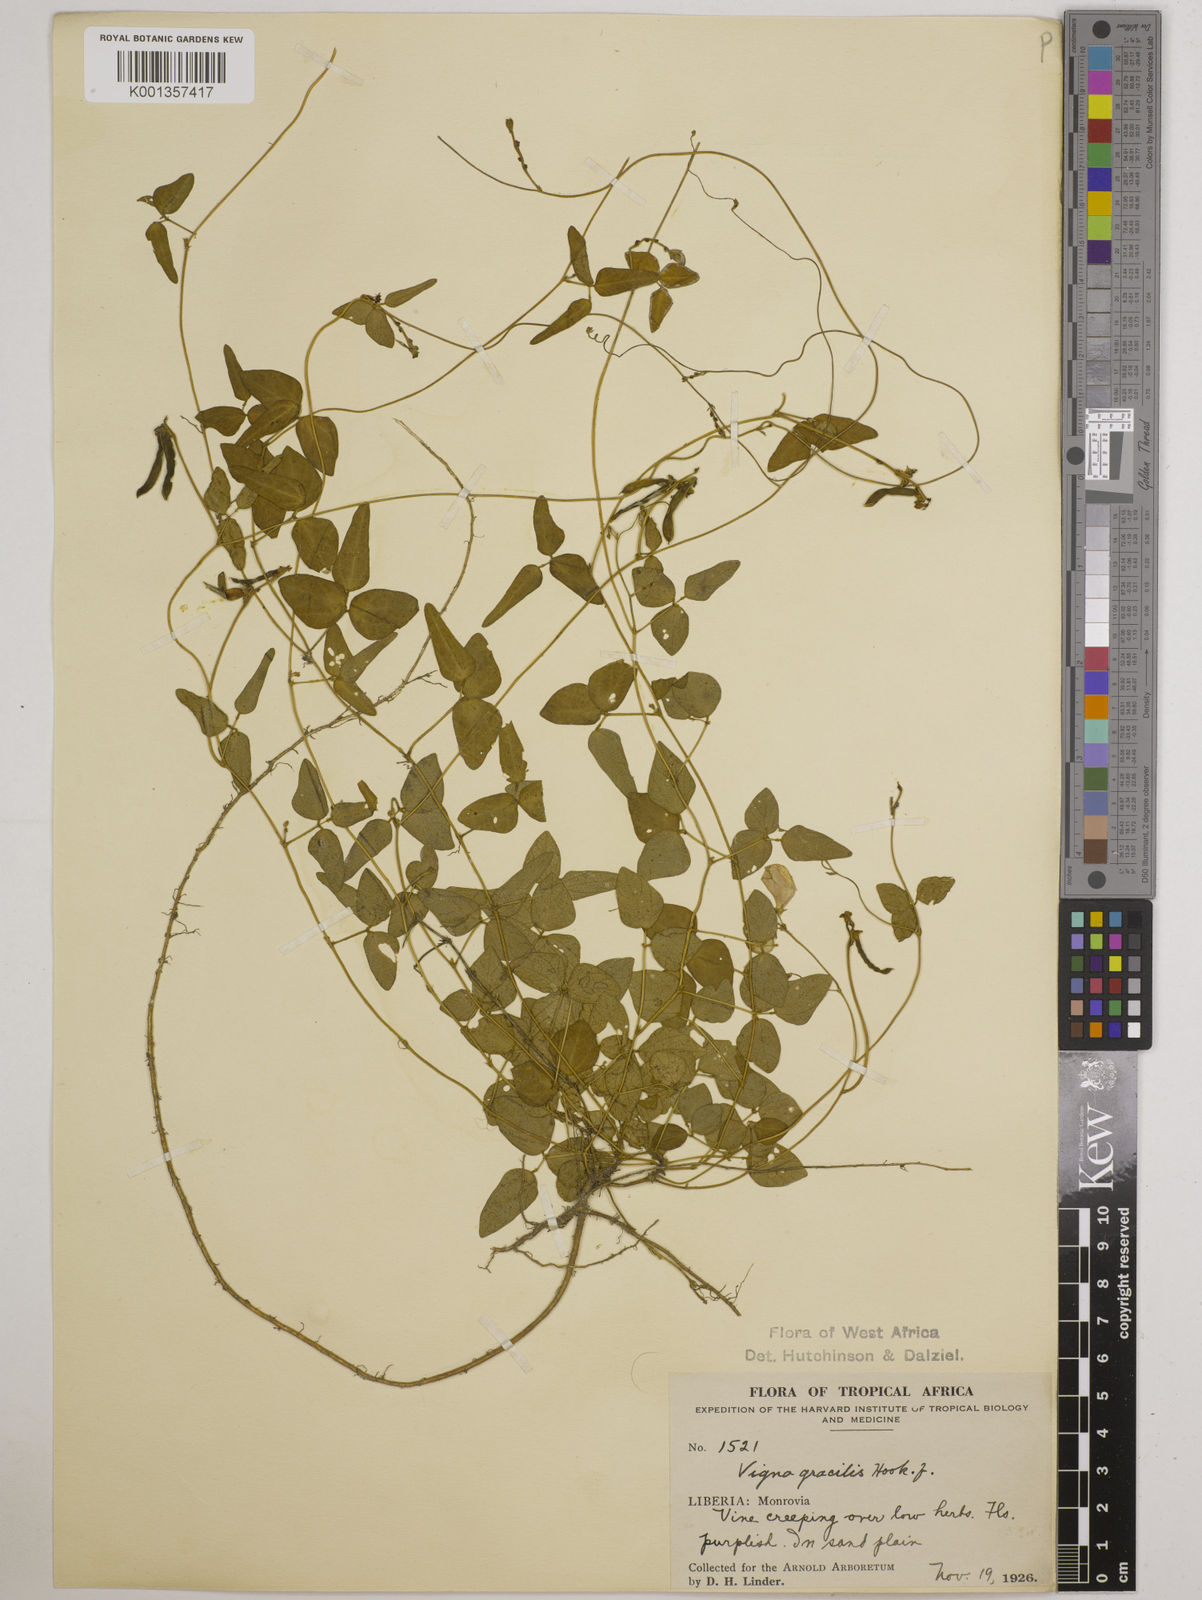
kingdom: Plantae
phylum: Tracheophyta
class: Magnoliopsida
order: Fabales
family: Fabaceae
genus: Vigna
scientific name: Vigna gracilis
